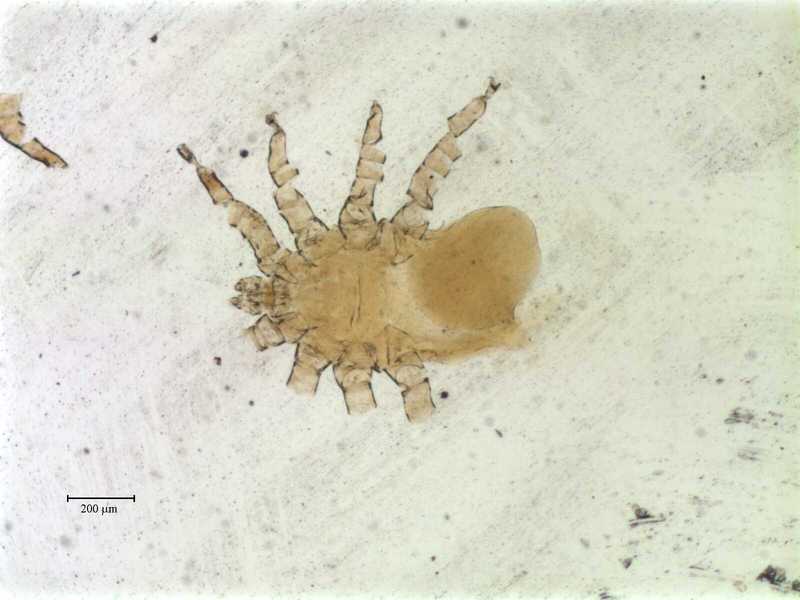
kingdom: Animalia
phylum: Arthropoda
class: Arachnida
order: Mesostigmata
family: Rhinonyssidae
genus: Ptilonyssus
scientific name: Ptilonyssus
